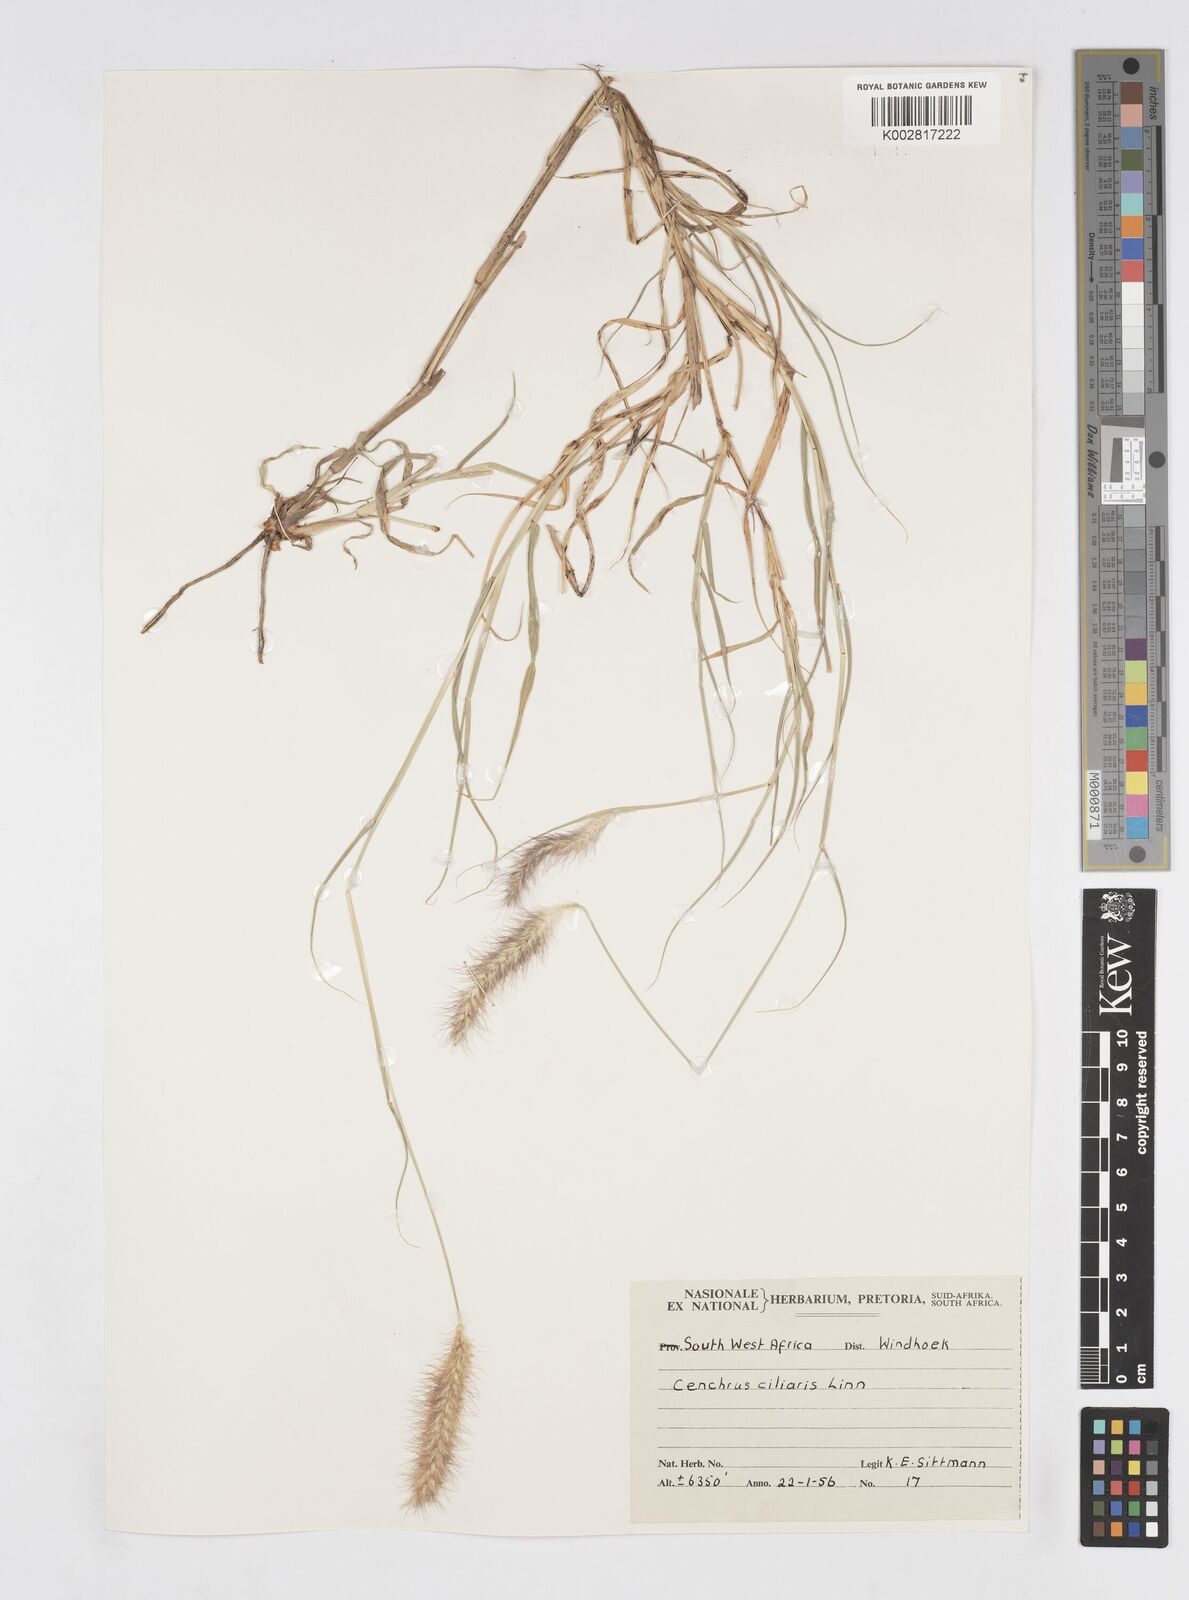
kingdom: Plantae
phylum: Tracheophyta
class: Liliopsida
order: Poales
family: Poaceae
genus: Cenchrus
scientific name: Cenchrus ciliaris
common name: Buffelgrass
